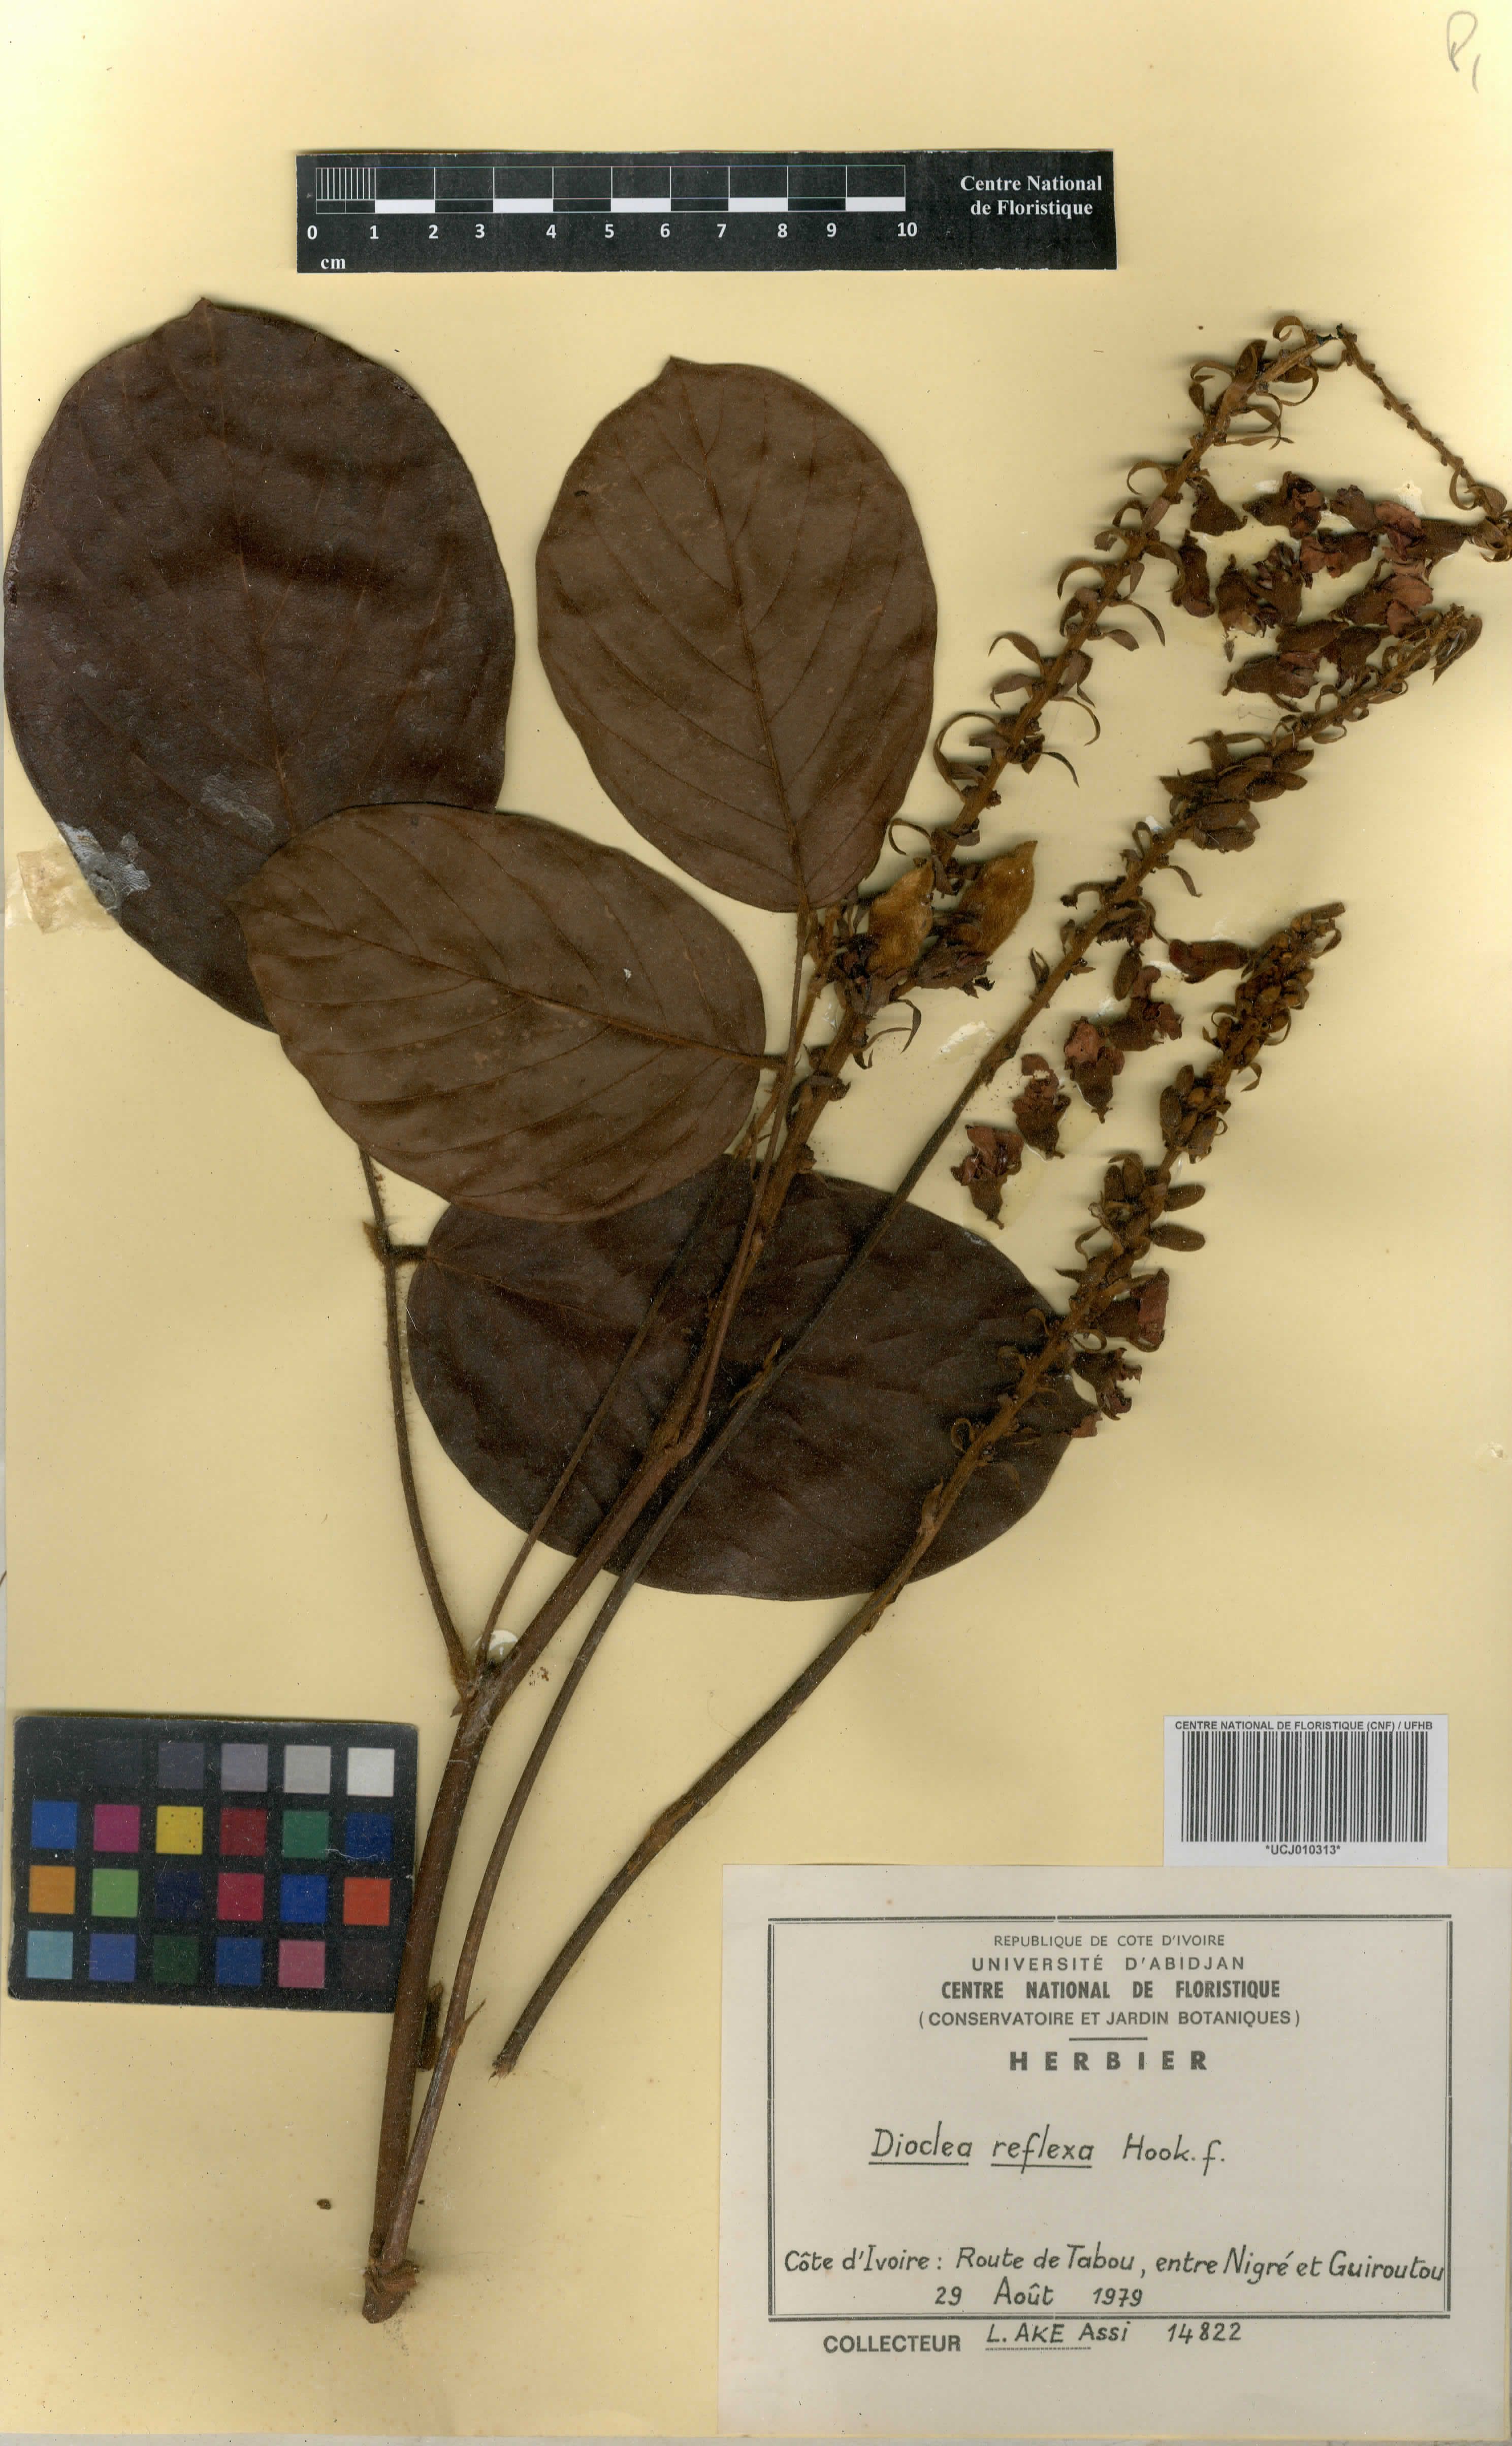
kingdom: Plantae
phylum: Tracheophyta
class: Magnoliopsida
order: Fabales
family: Fabaceae
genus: Macropsychanthus
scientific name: Macropsychanthus comosus
